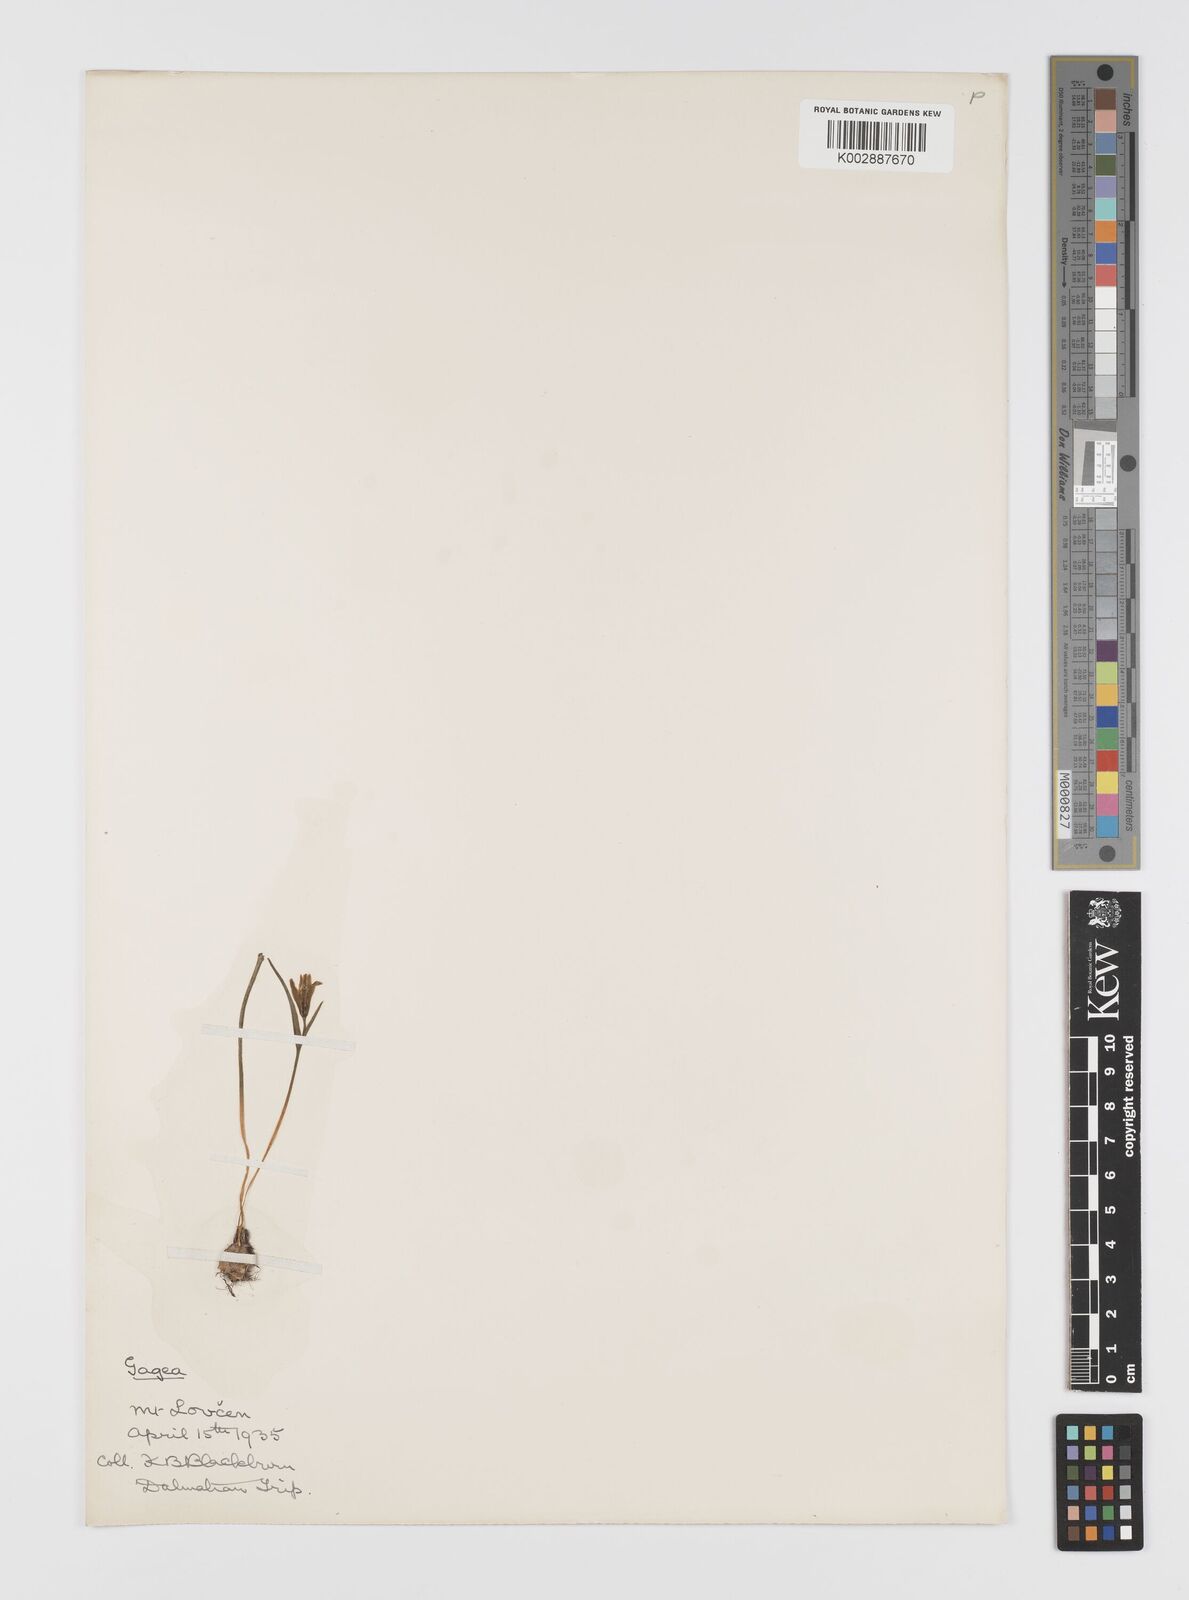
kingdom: Plantae
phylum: Tracheophyta
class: Liliopsida
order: Liliales
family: Liliaceae
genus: Gagea
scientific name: Gagea
